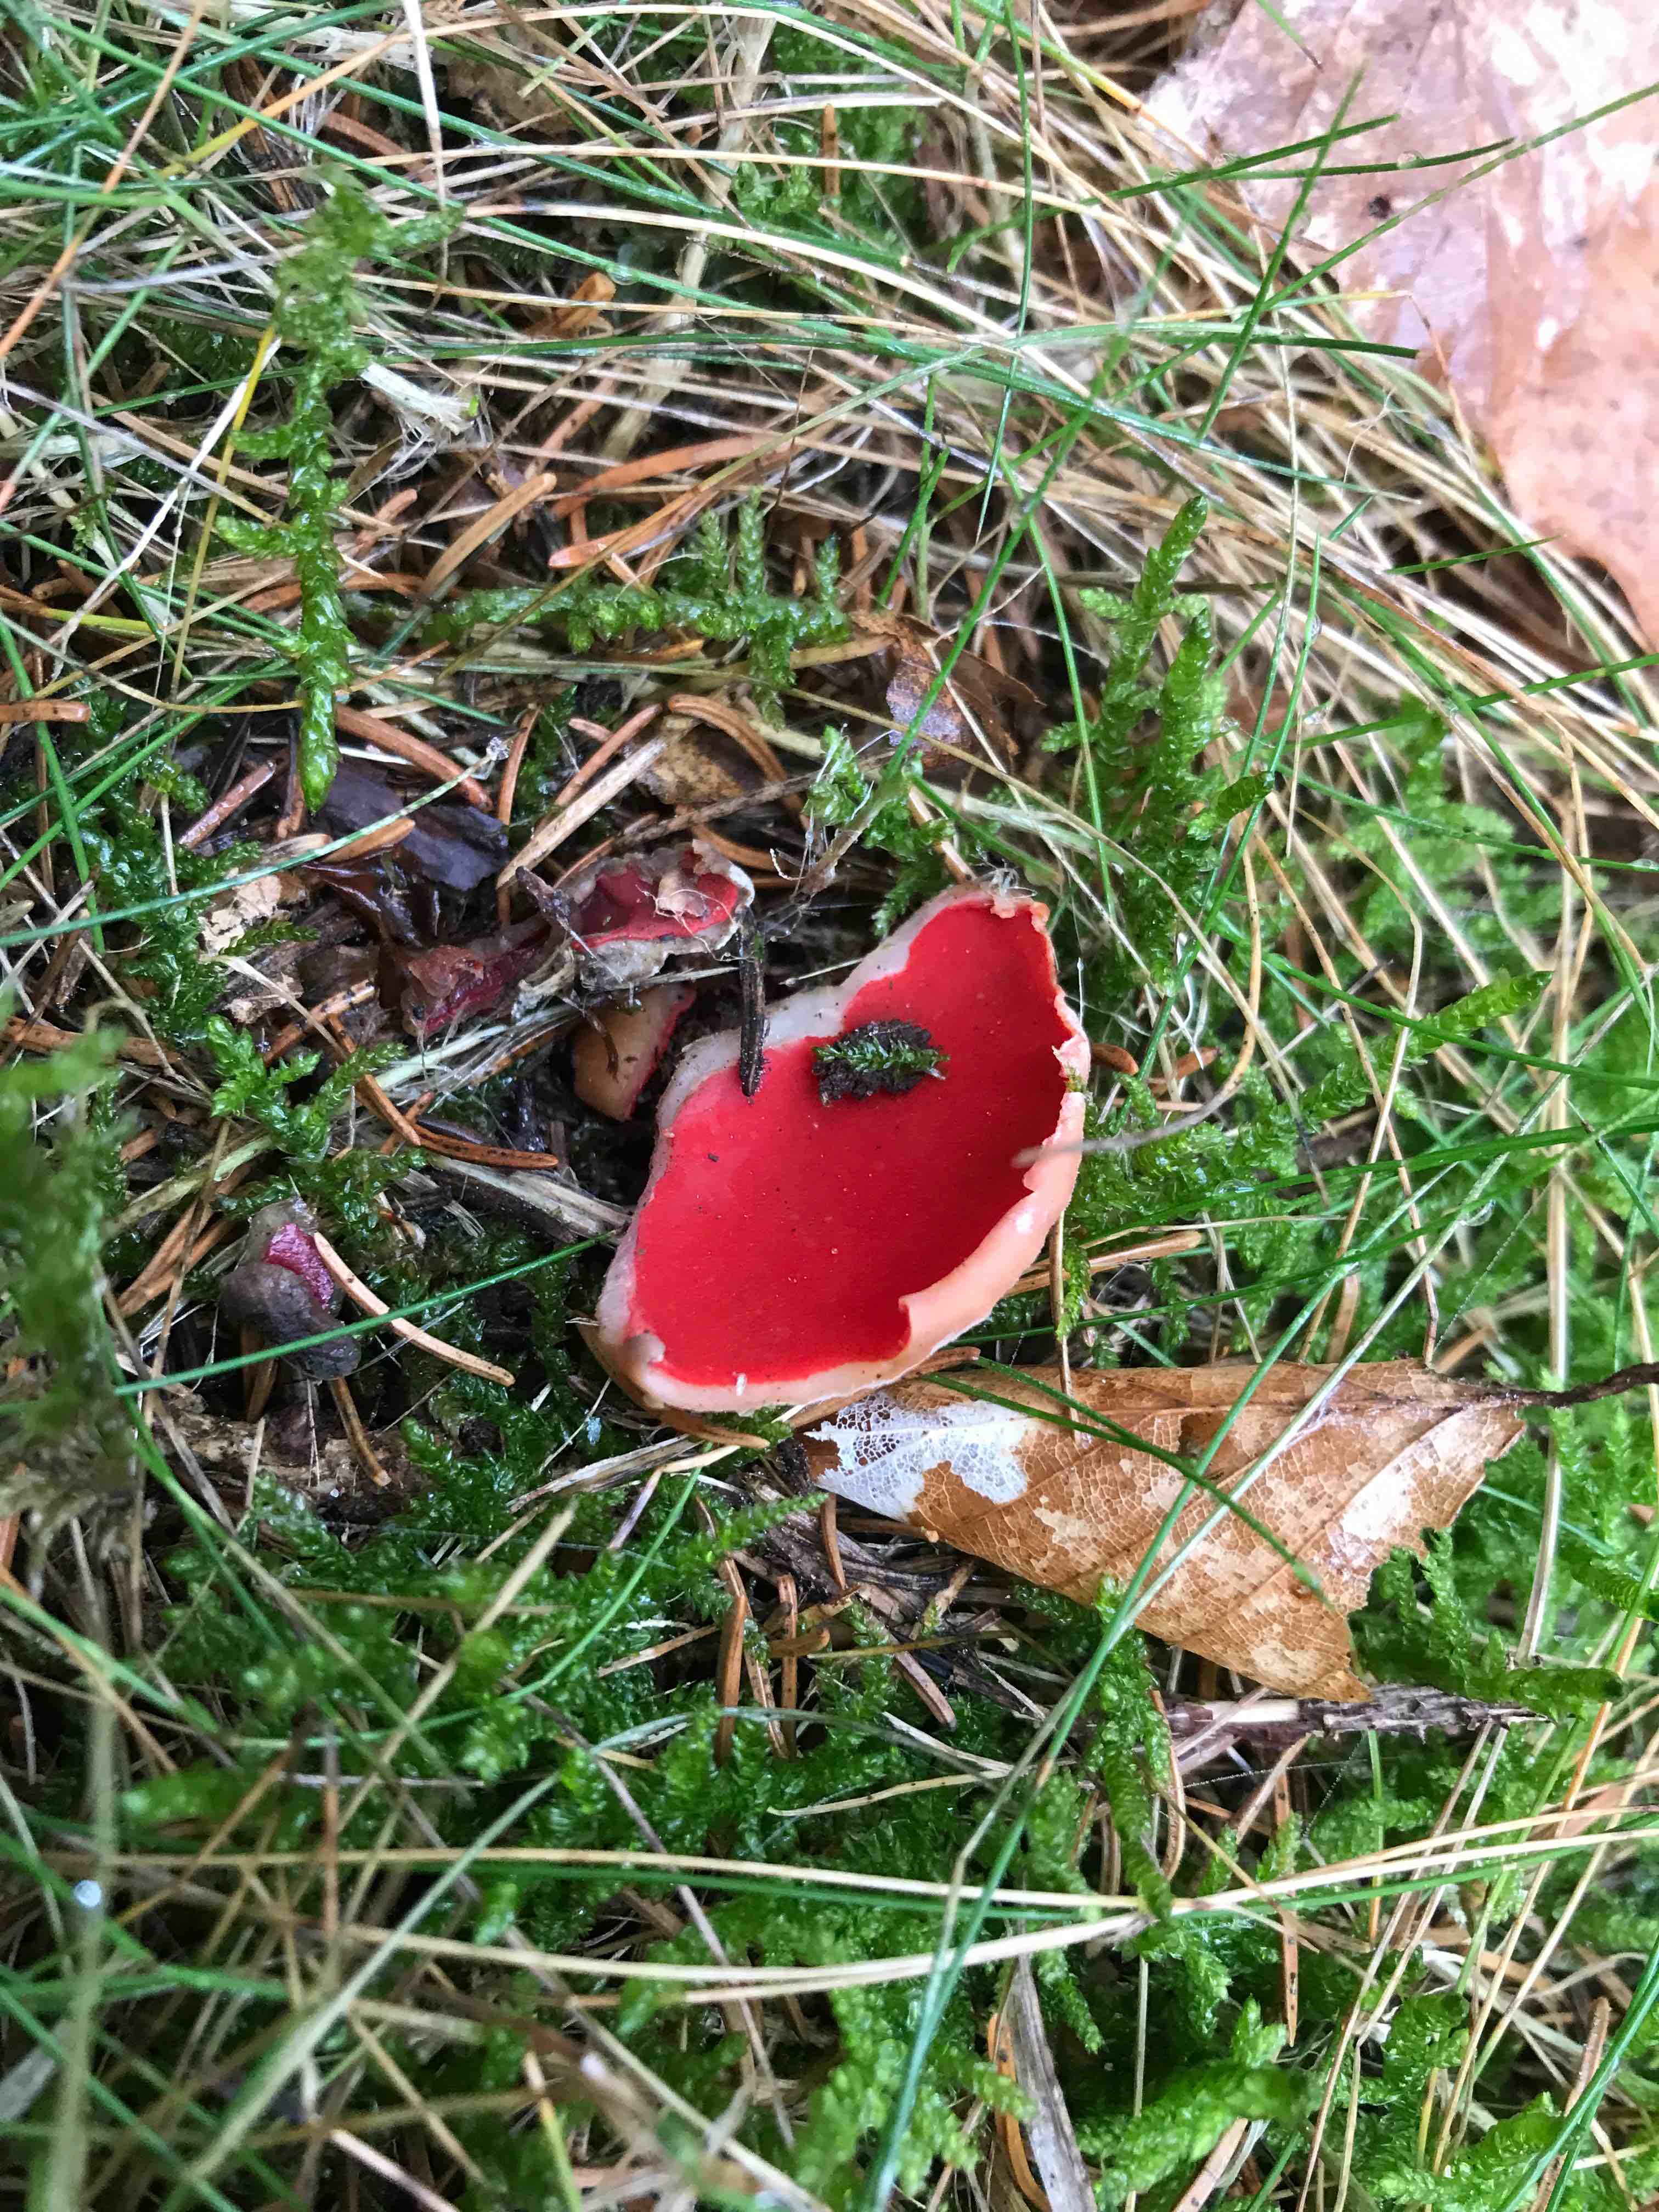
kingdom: Fungi
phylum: Ascomycota
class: Pezizomycetes
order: Pezizales
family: Sarcoscyphaceae
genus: Sarcoscypha
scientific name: Sarcoscypha austriaca
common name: krølhåret pragtbæger
